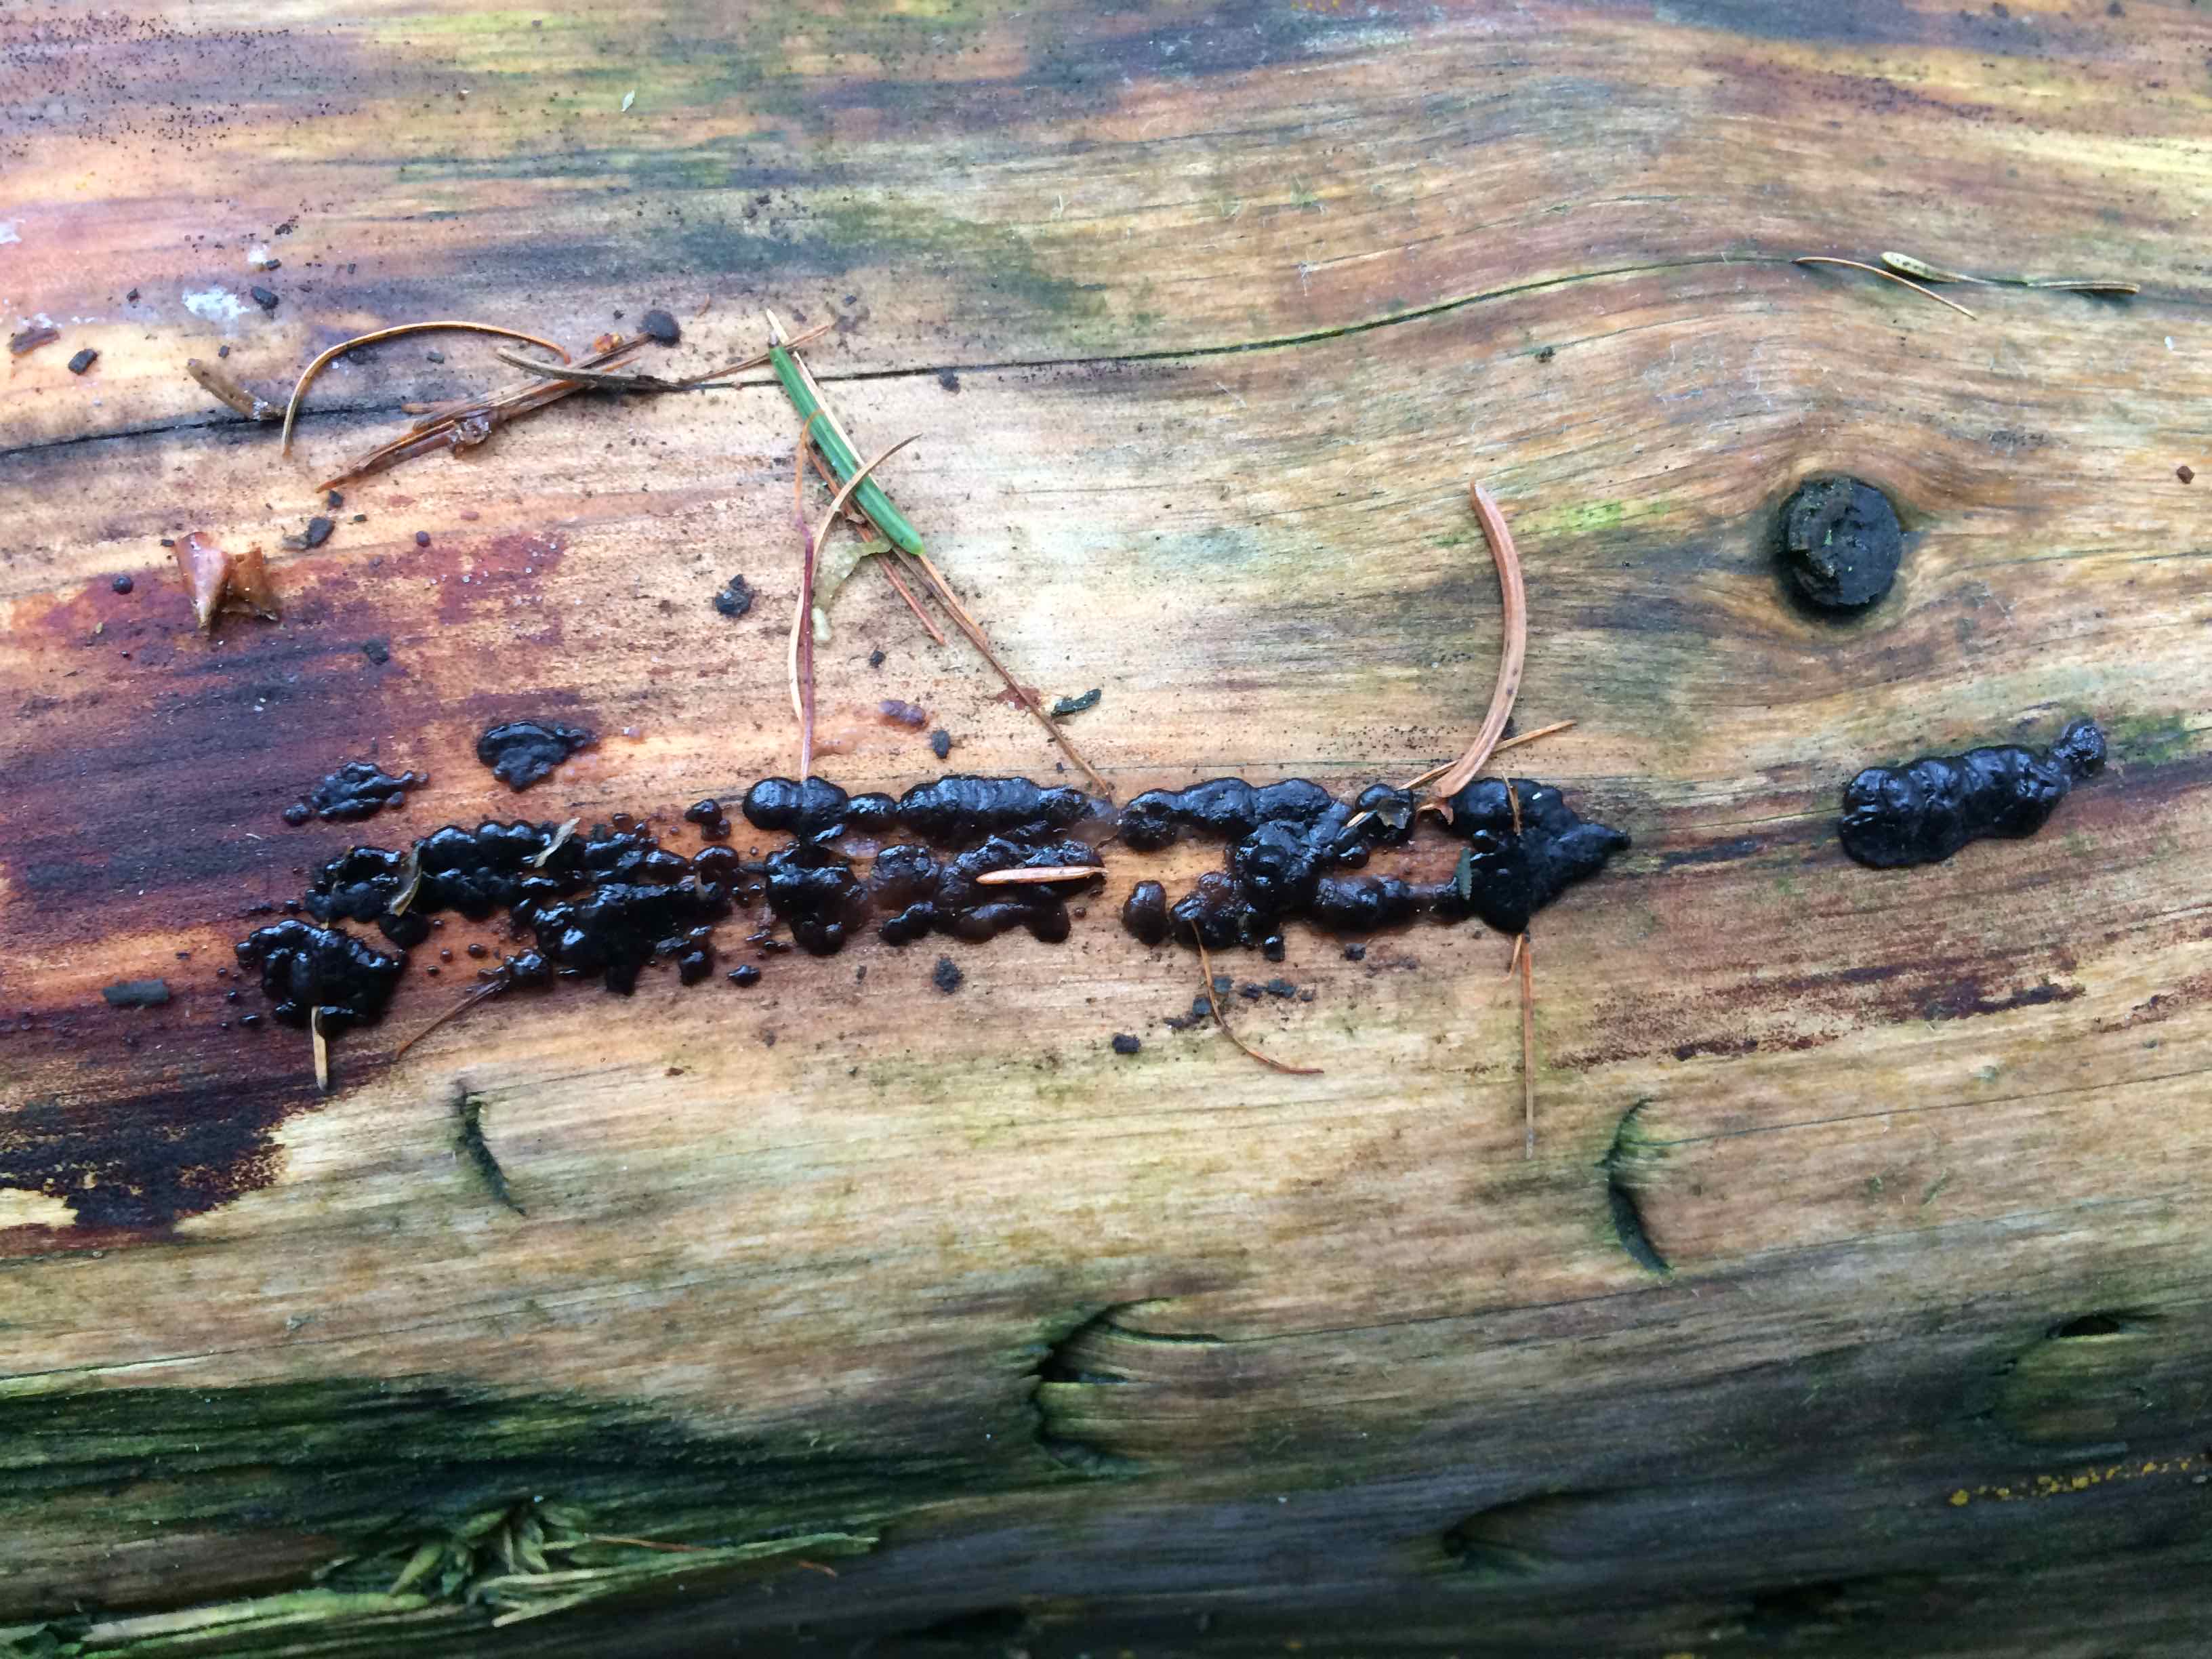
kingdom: Fungi
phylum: Basidiomycota
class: Agaricomycetes
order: Auriculariales
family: Auriculariaceae
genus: Exidia
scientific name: Exidia nigricans
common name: almindelig bævretop
